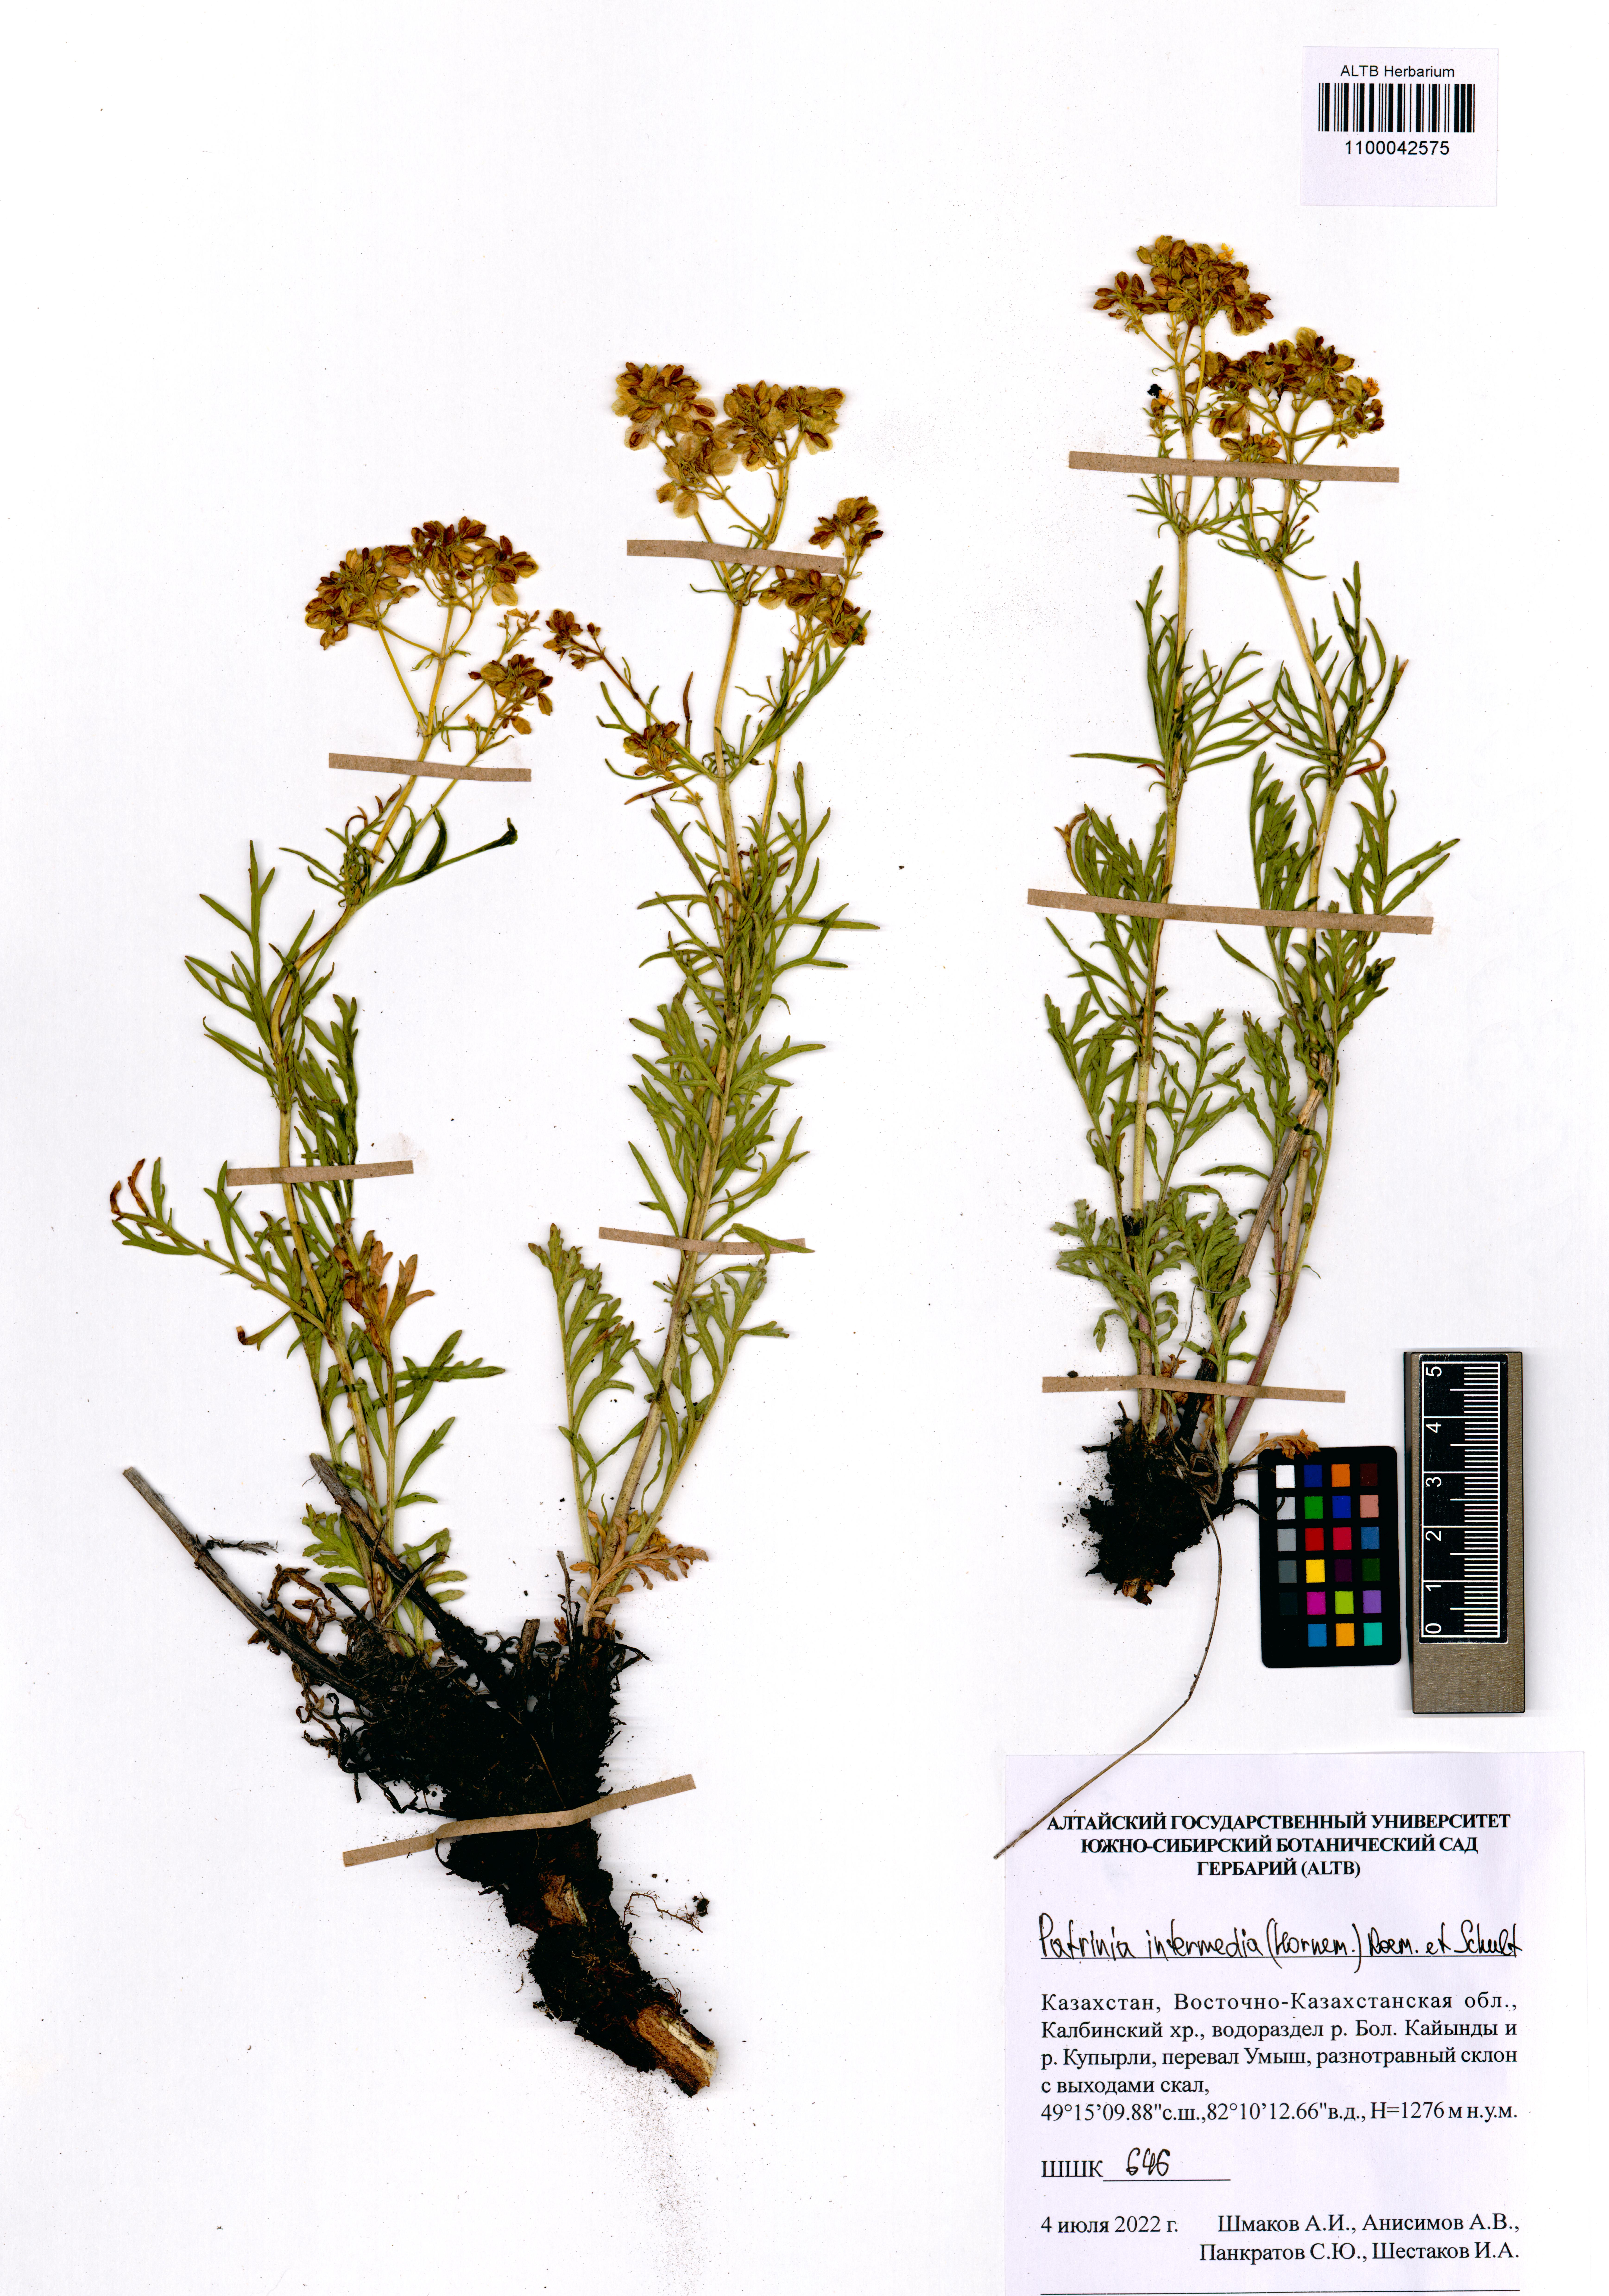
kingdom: Plantae
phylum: Tracheophyta
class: Magnoliopsida
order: Dipsacales
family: Caprifoliaceae
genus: Patrinia
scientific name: Patrinia intermedia
